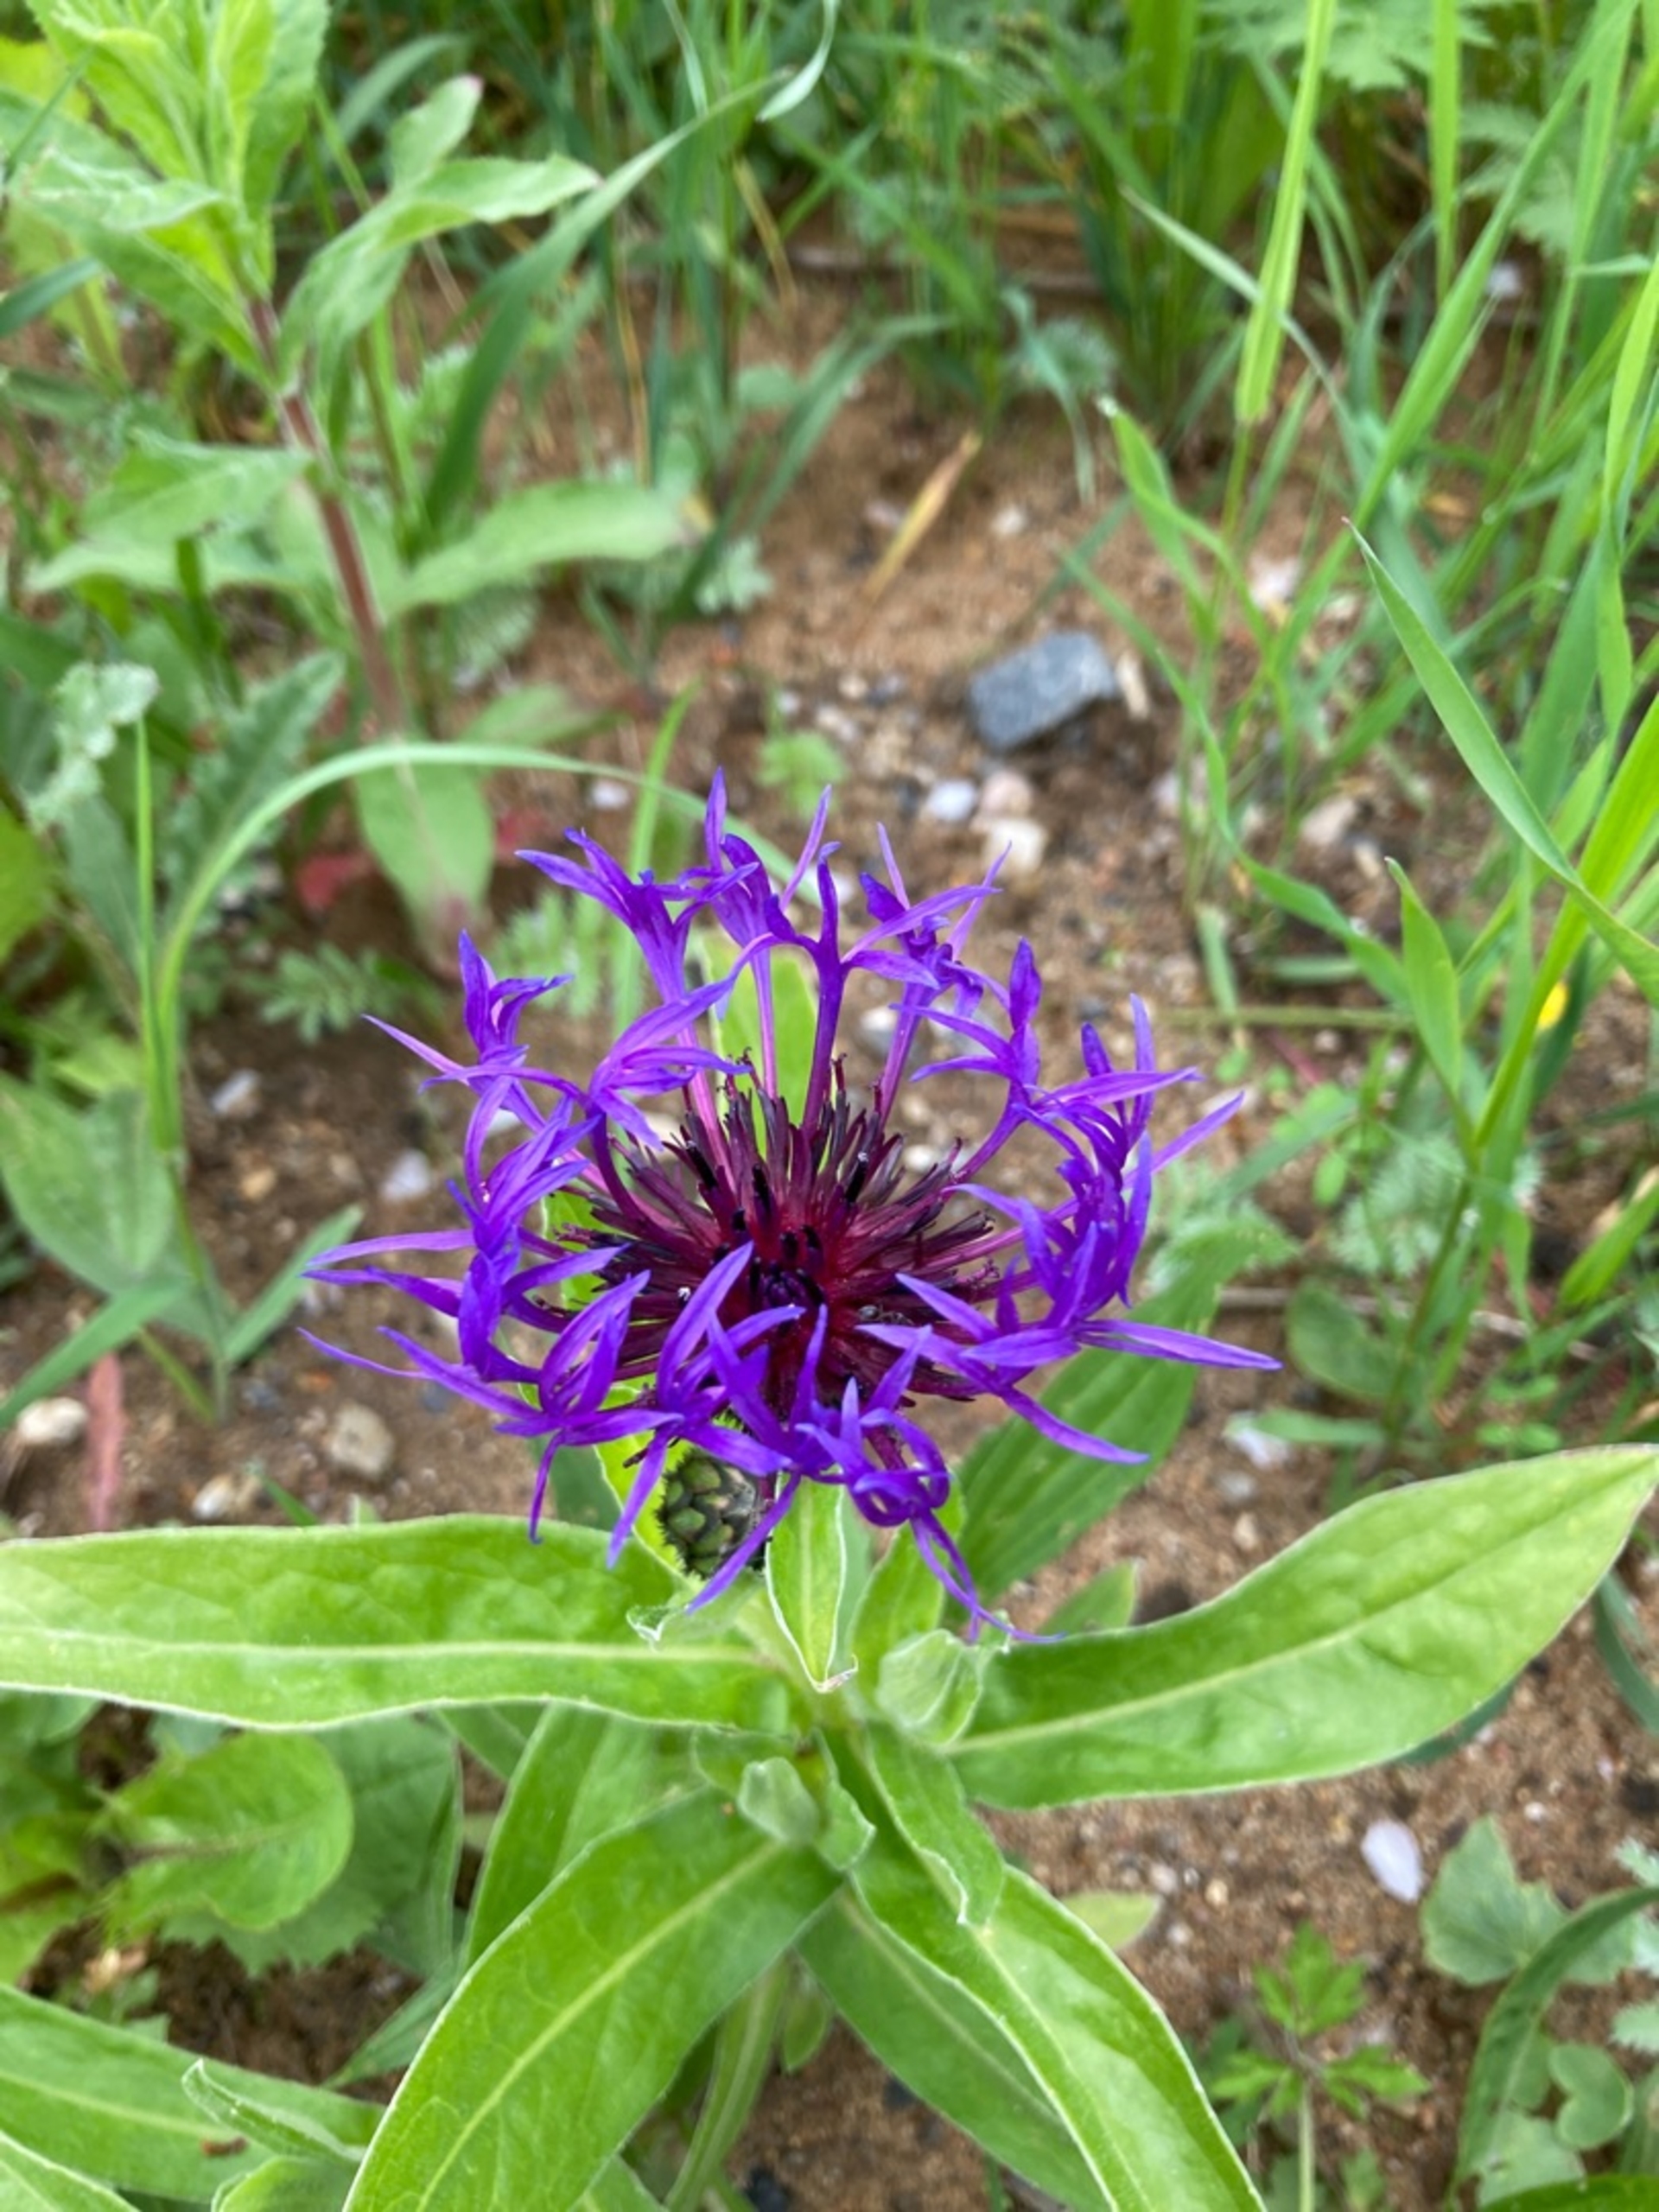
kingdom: Plantae
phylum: Tracheophyta
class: Magnoliopsida
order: Asterales
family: Asteraceae
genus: Centaurea
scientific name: Centaurea montana
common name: Bjerg-knopurt
